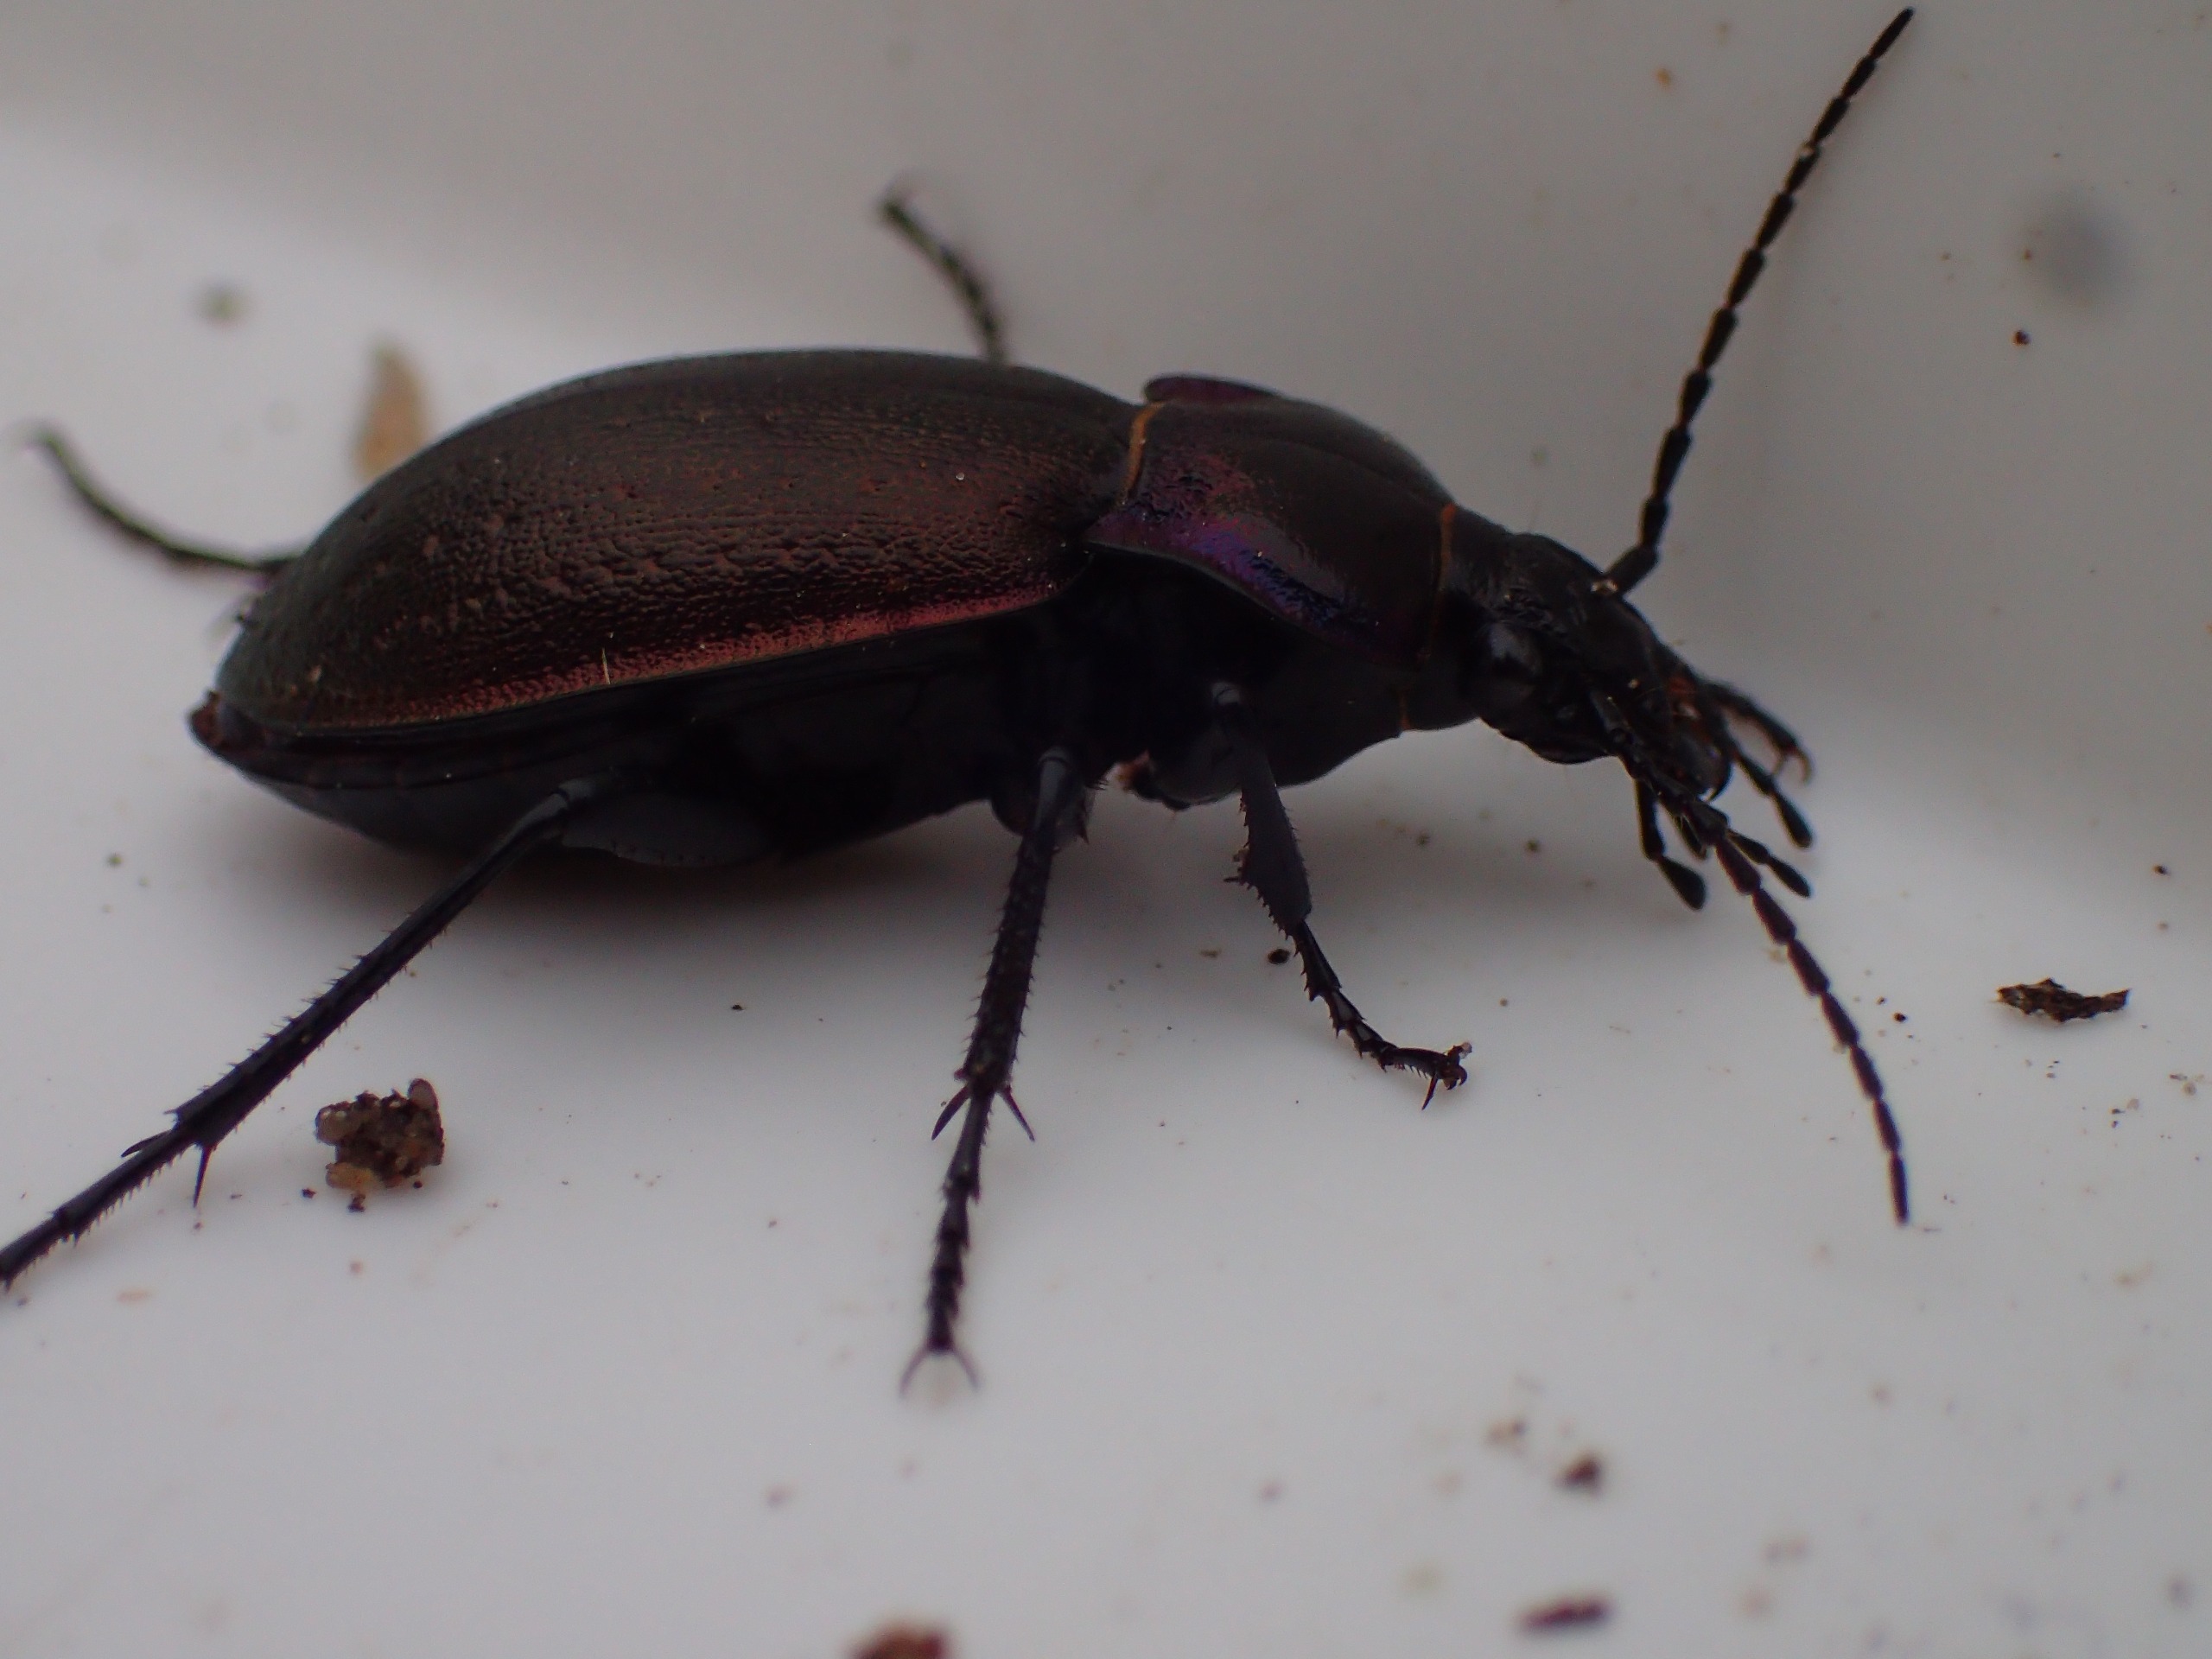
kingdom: Animalia
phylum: Arthropoda
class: Insecta
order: Coleoptera
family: Carabidae
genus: Carabus
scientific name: Carabus nemoralis
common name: Kratløber
